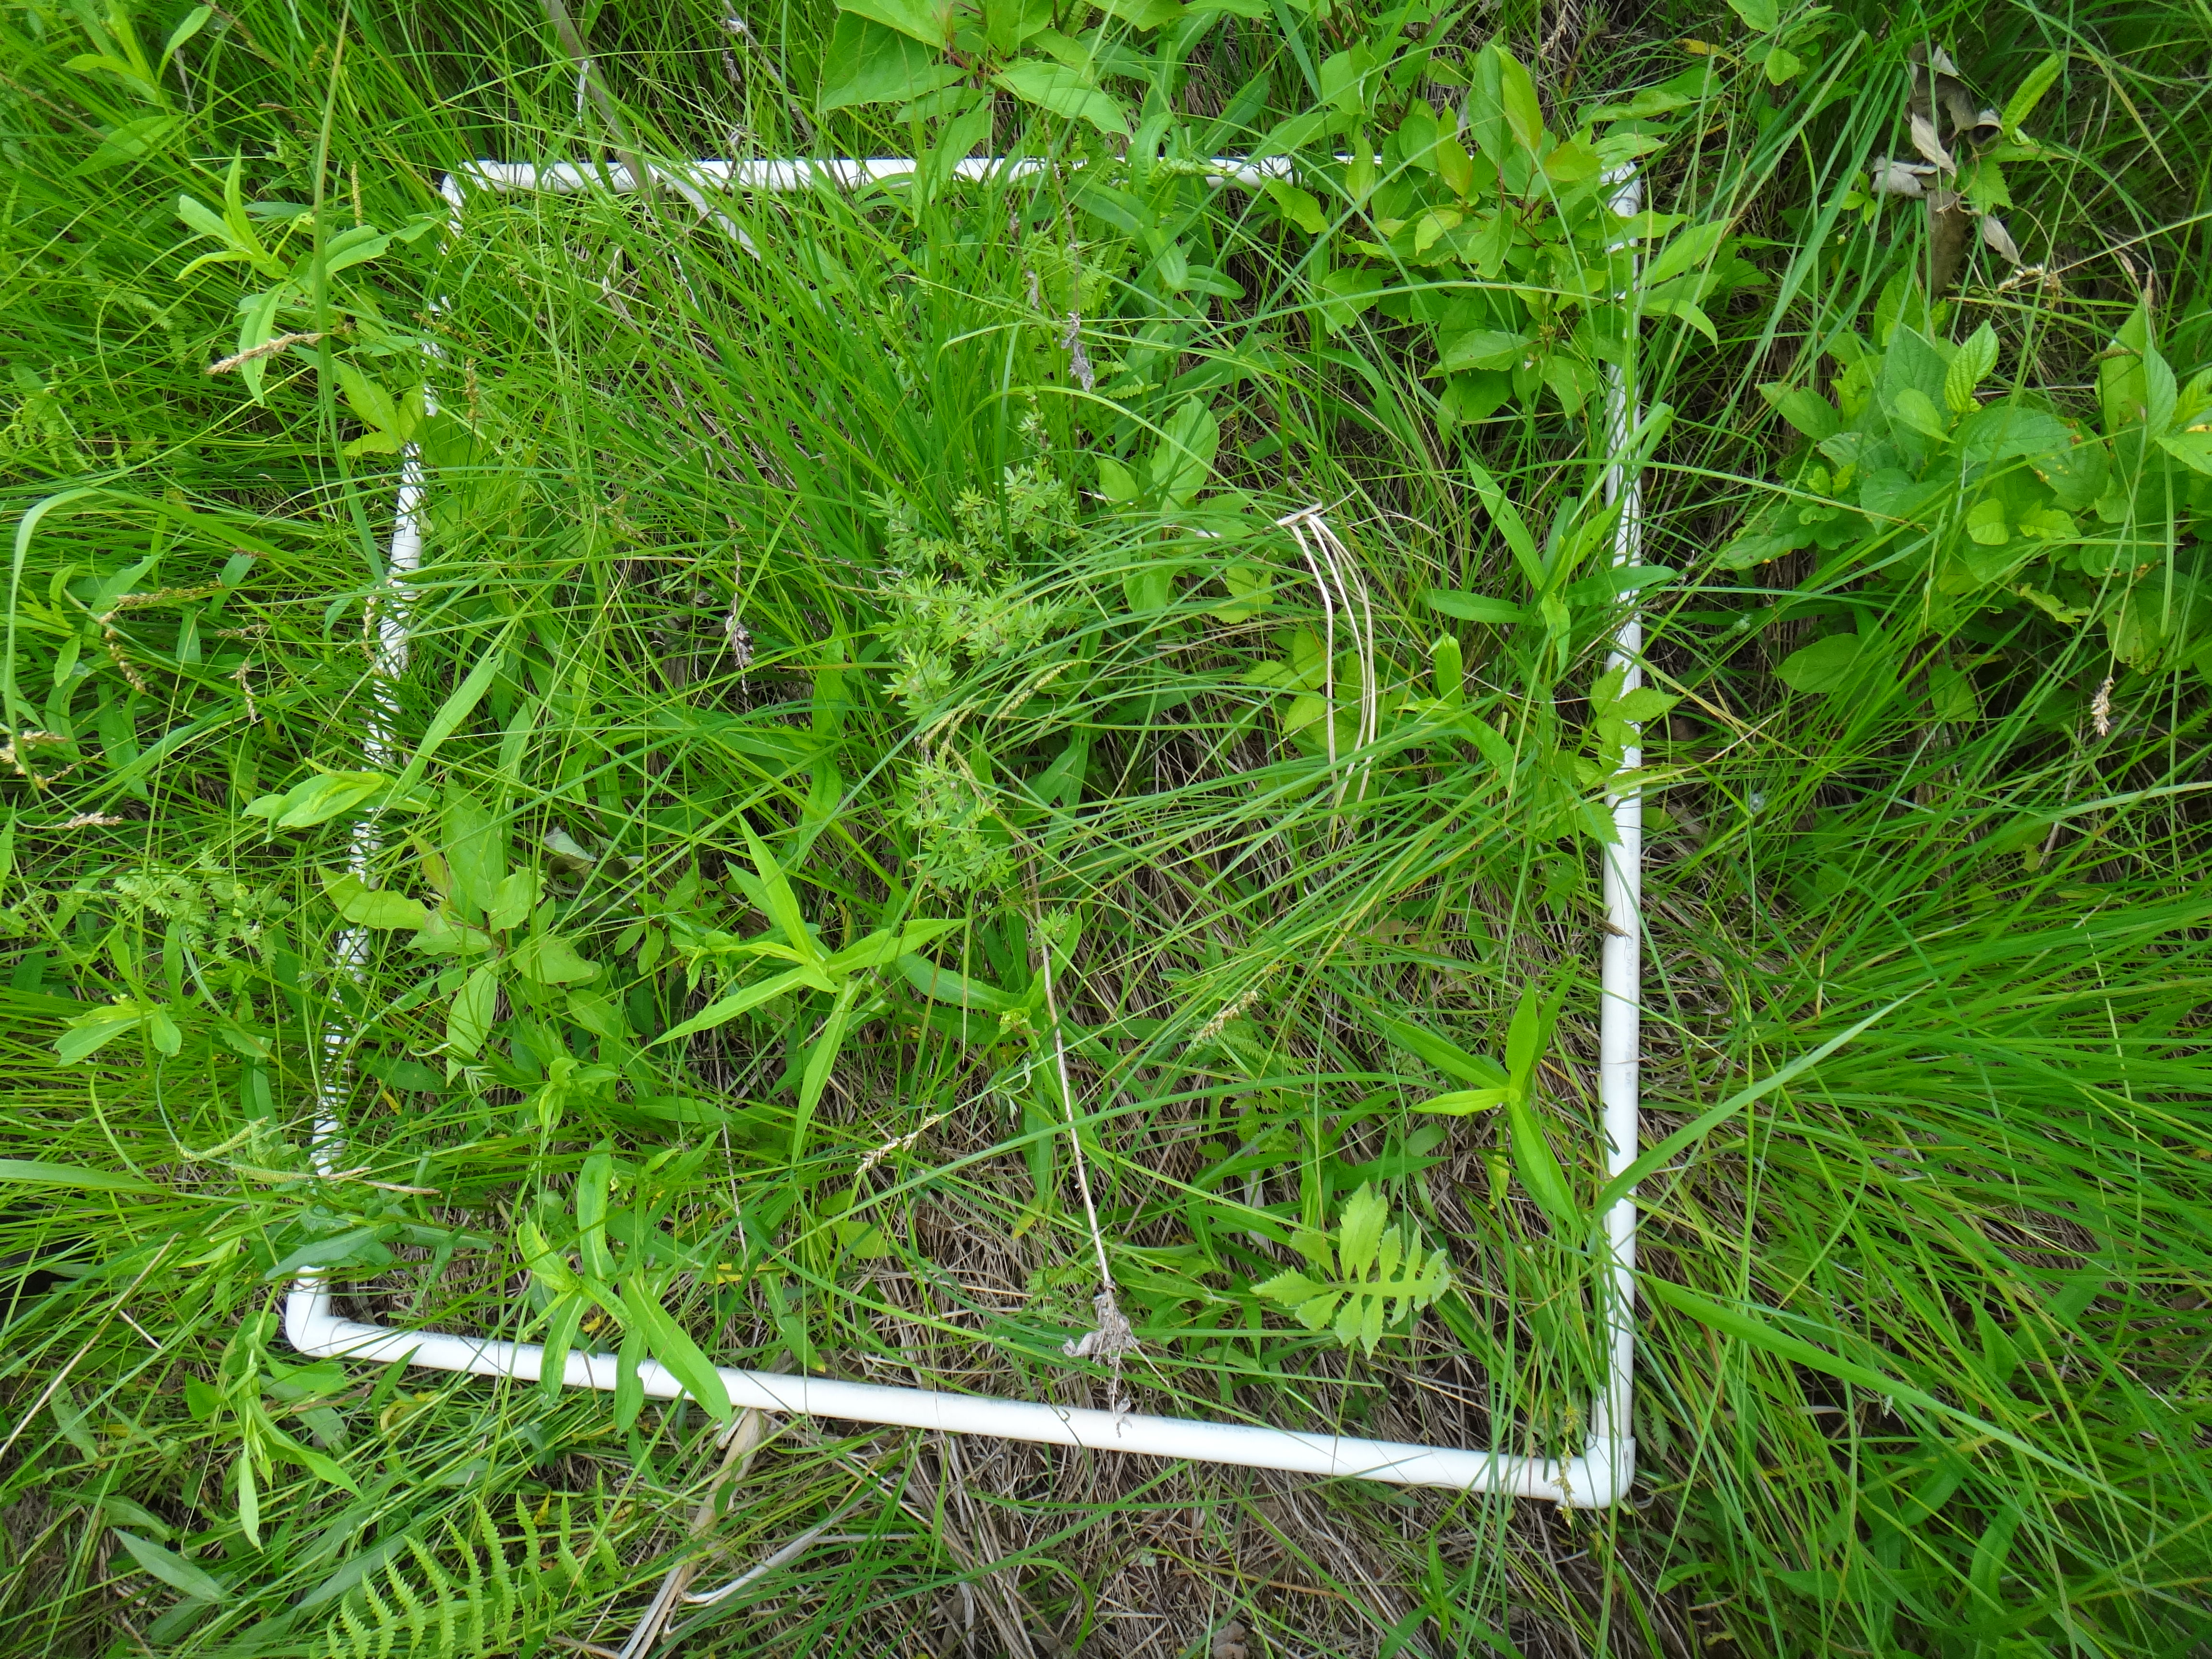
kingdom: Plantae
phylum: Tracheophyta
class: Liliopsida
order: Poales
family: Cyperaceae
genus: Carex
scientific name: Carex aquatilis
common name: Water sedge
